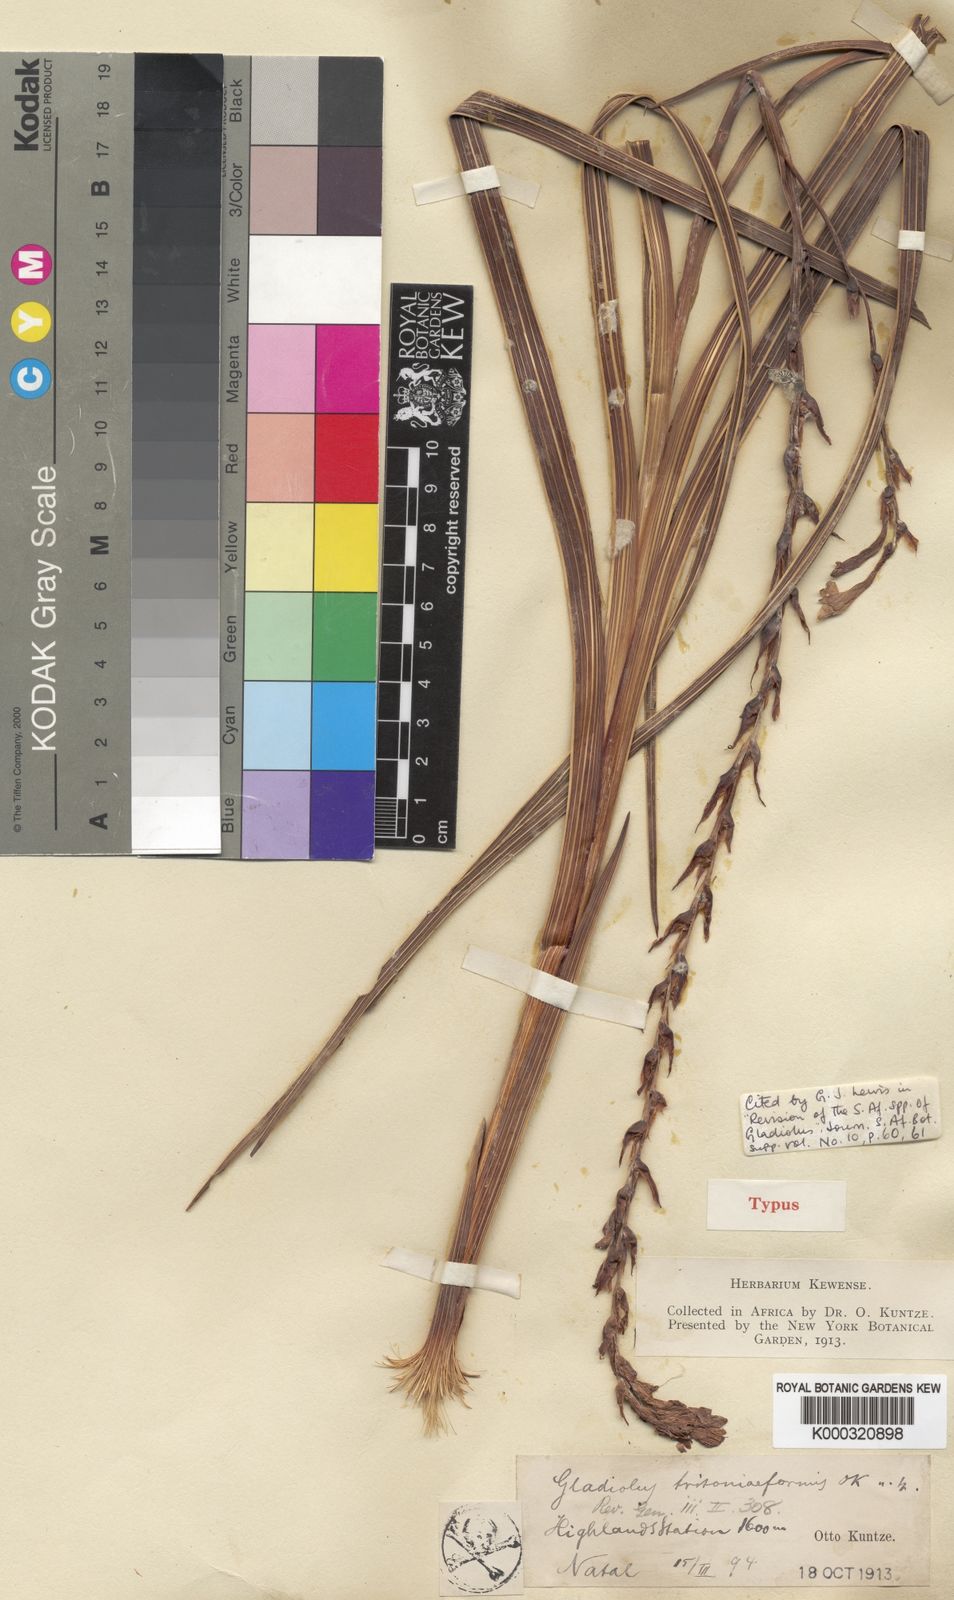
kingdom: Plantae
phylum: Tracheophyta
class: Liliopsida
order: Asparagales
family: Iridaceae
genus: Gladiolus
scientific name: Gladiolus crassifolius
